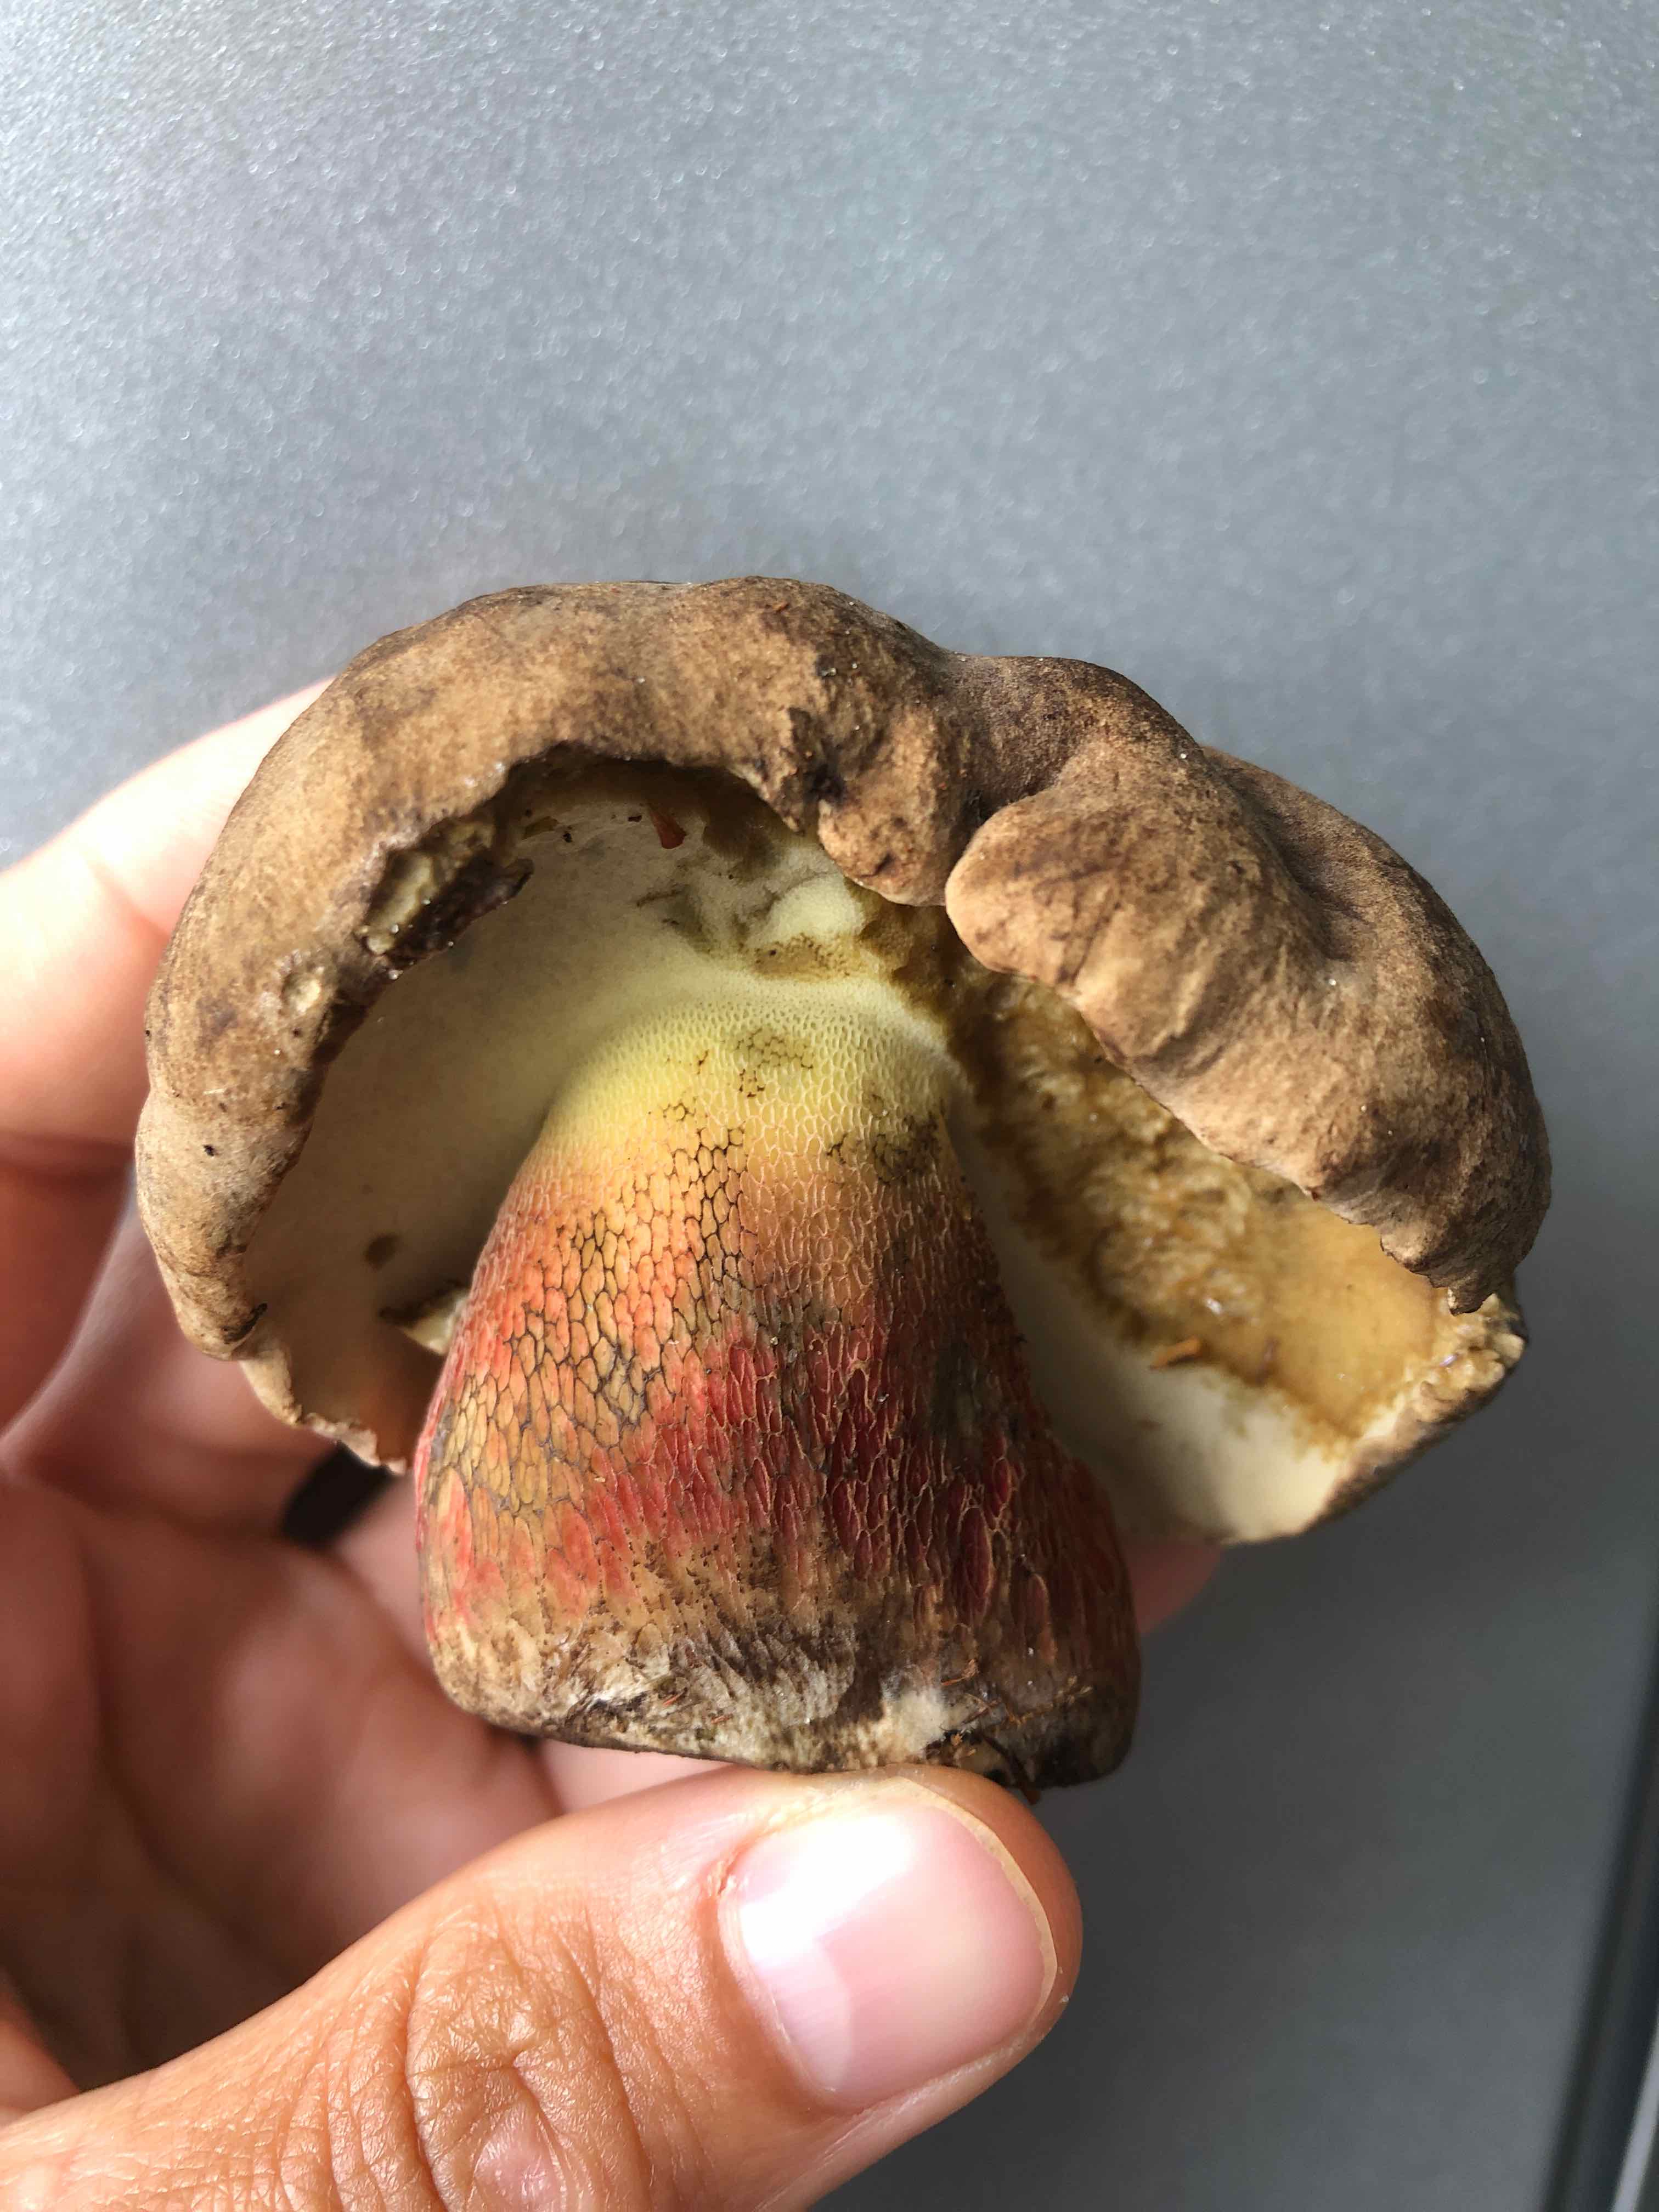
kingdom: Fungi
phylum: Basidiomycota
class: Agaricomycetes
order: Boletales
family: Boletaceae
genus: Caloboletus
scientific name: Caloboletus calopus
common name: skønfodet rørhat
